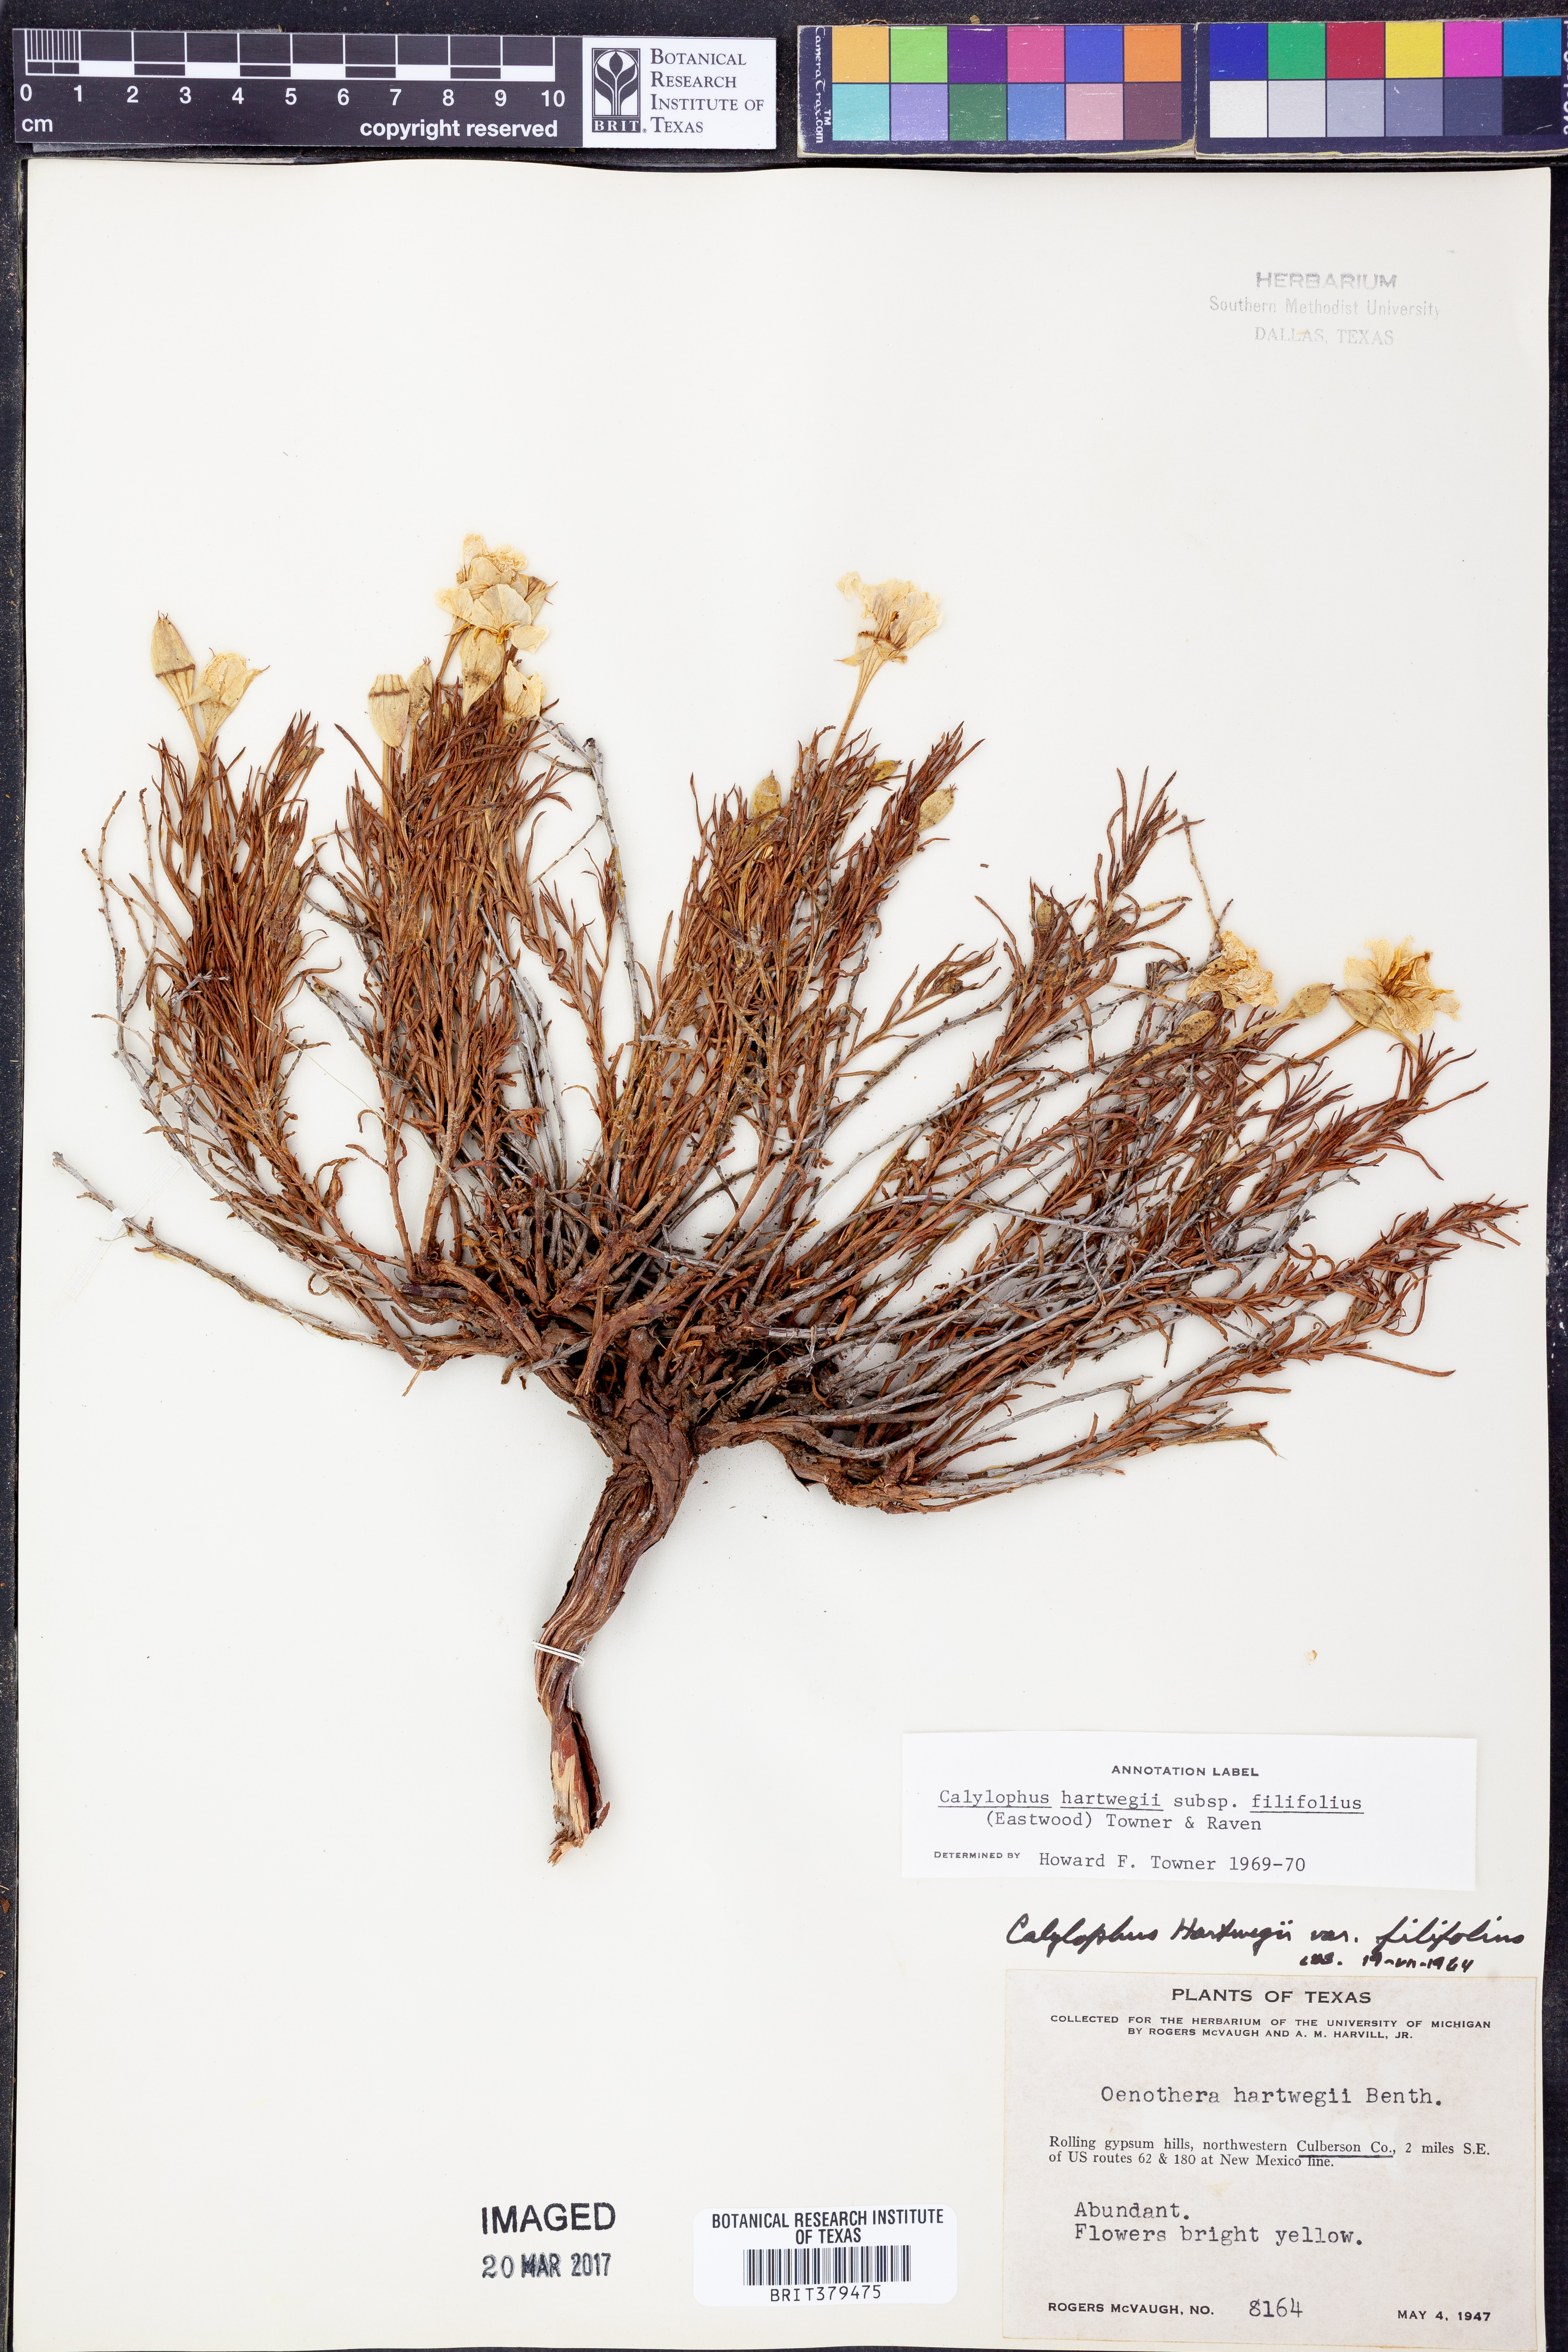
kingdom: Plantae
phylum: Tracheophyta
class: Magnoliopsida
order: Myrtales
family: Onagraceae
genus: Oenothera
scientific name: Oenothera hartwegii
